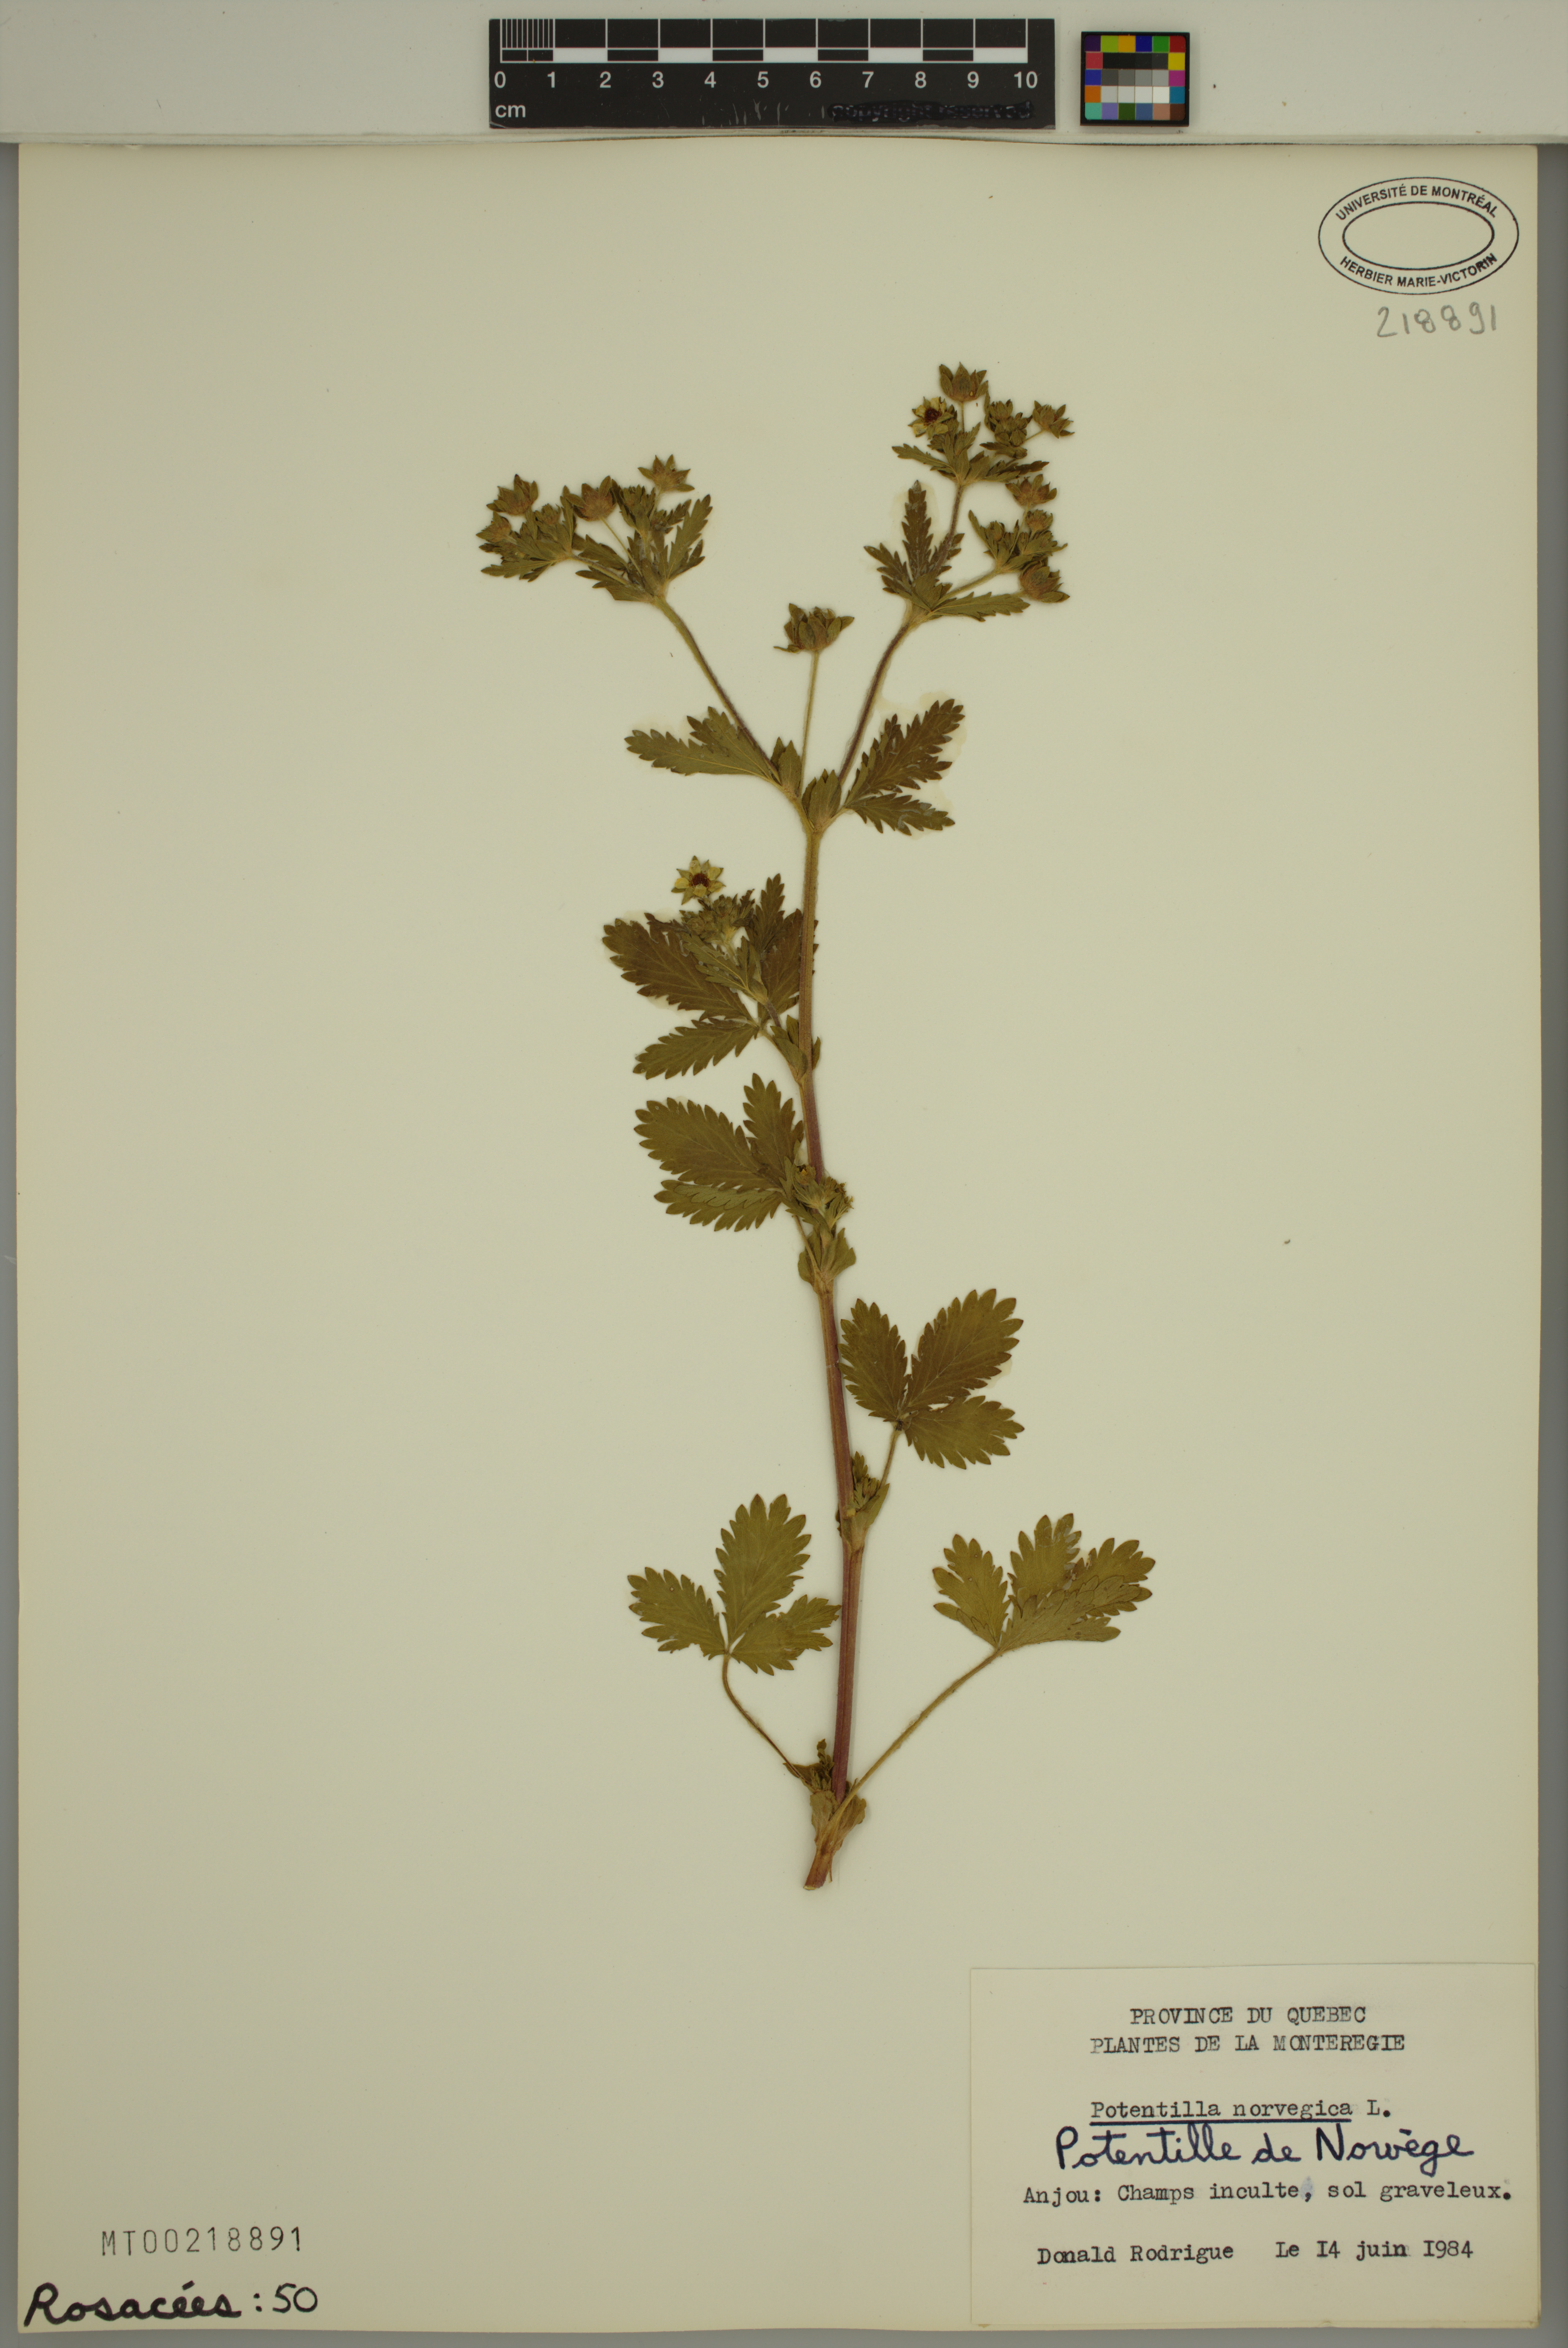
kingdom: Plantae
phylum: Tracheophyta
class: Magnoliopsida
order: Rosales
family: Rosaceae
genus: Potentilla
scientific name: Potentilla norvegica
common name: Ternate-leaved cinquefoil
